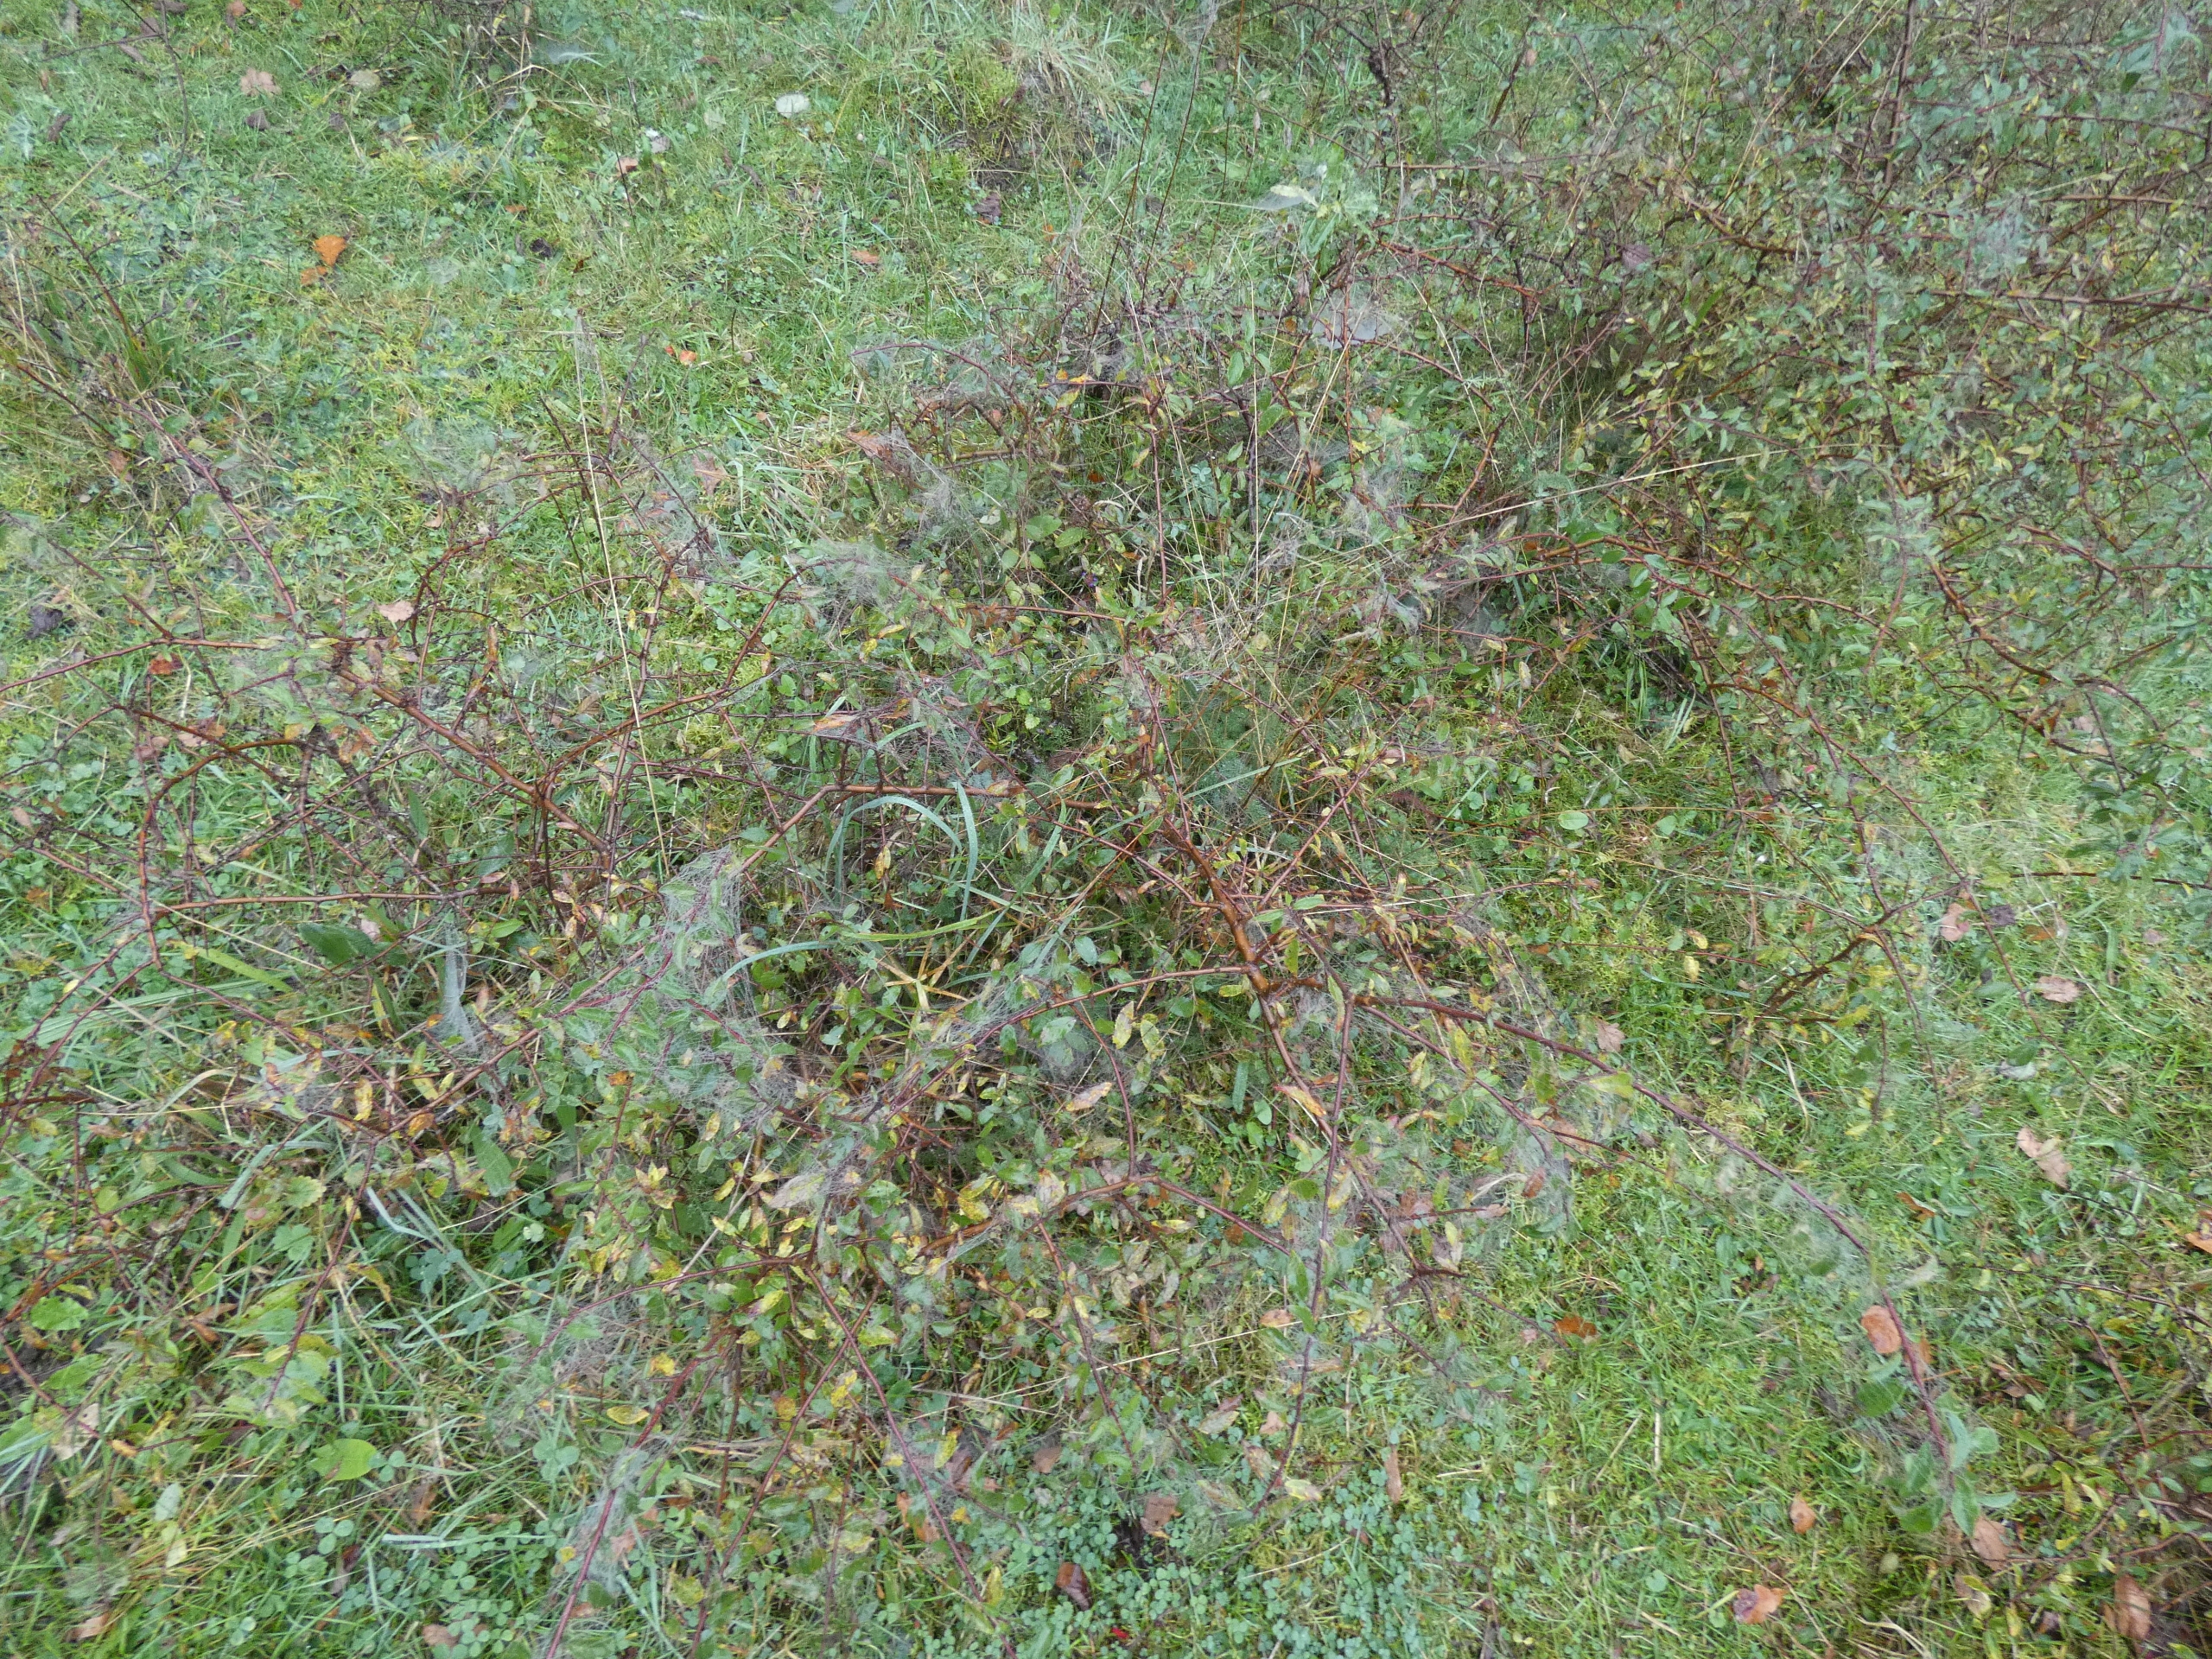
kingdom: Plantae
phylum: Tracheophyta
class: Magnoliopsida
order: Rosales
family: Rosaceae
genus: Prunus
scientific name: Prunus spinosa
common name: Slåen
